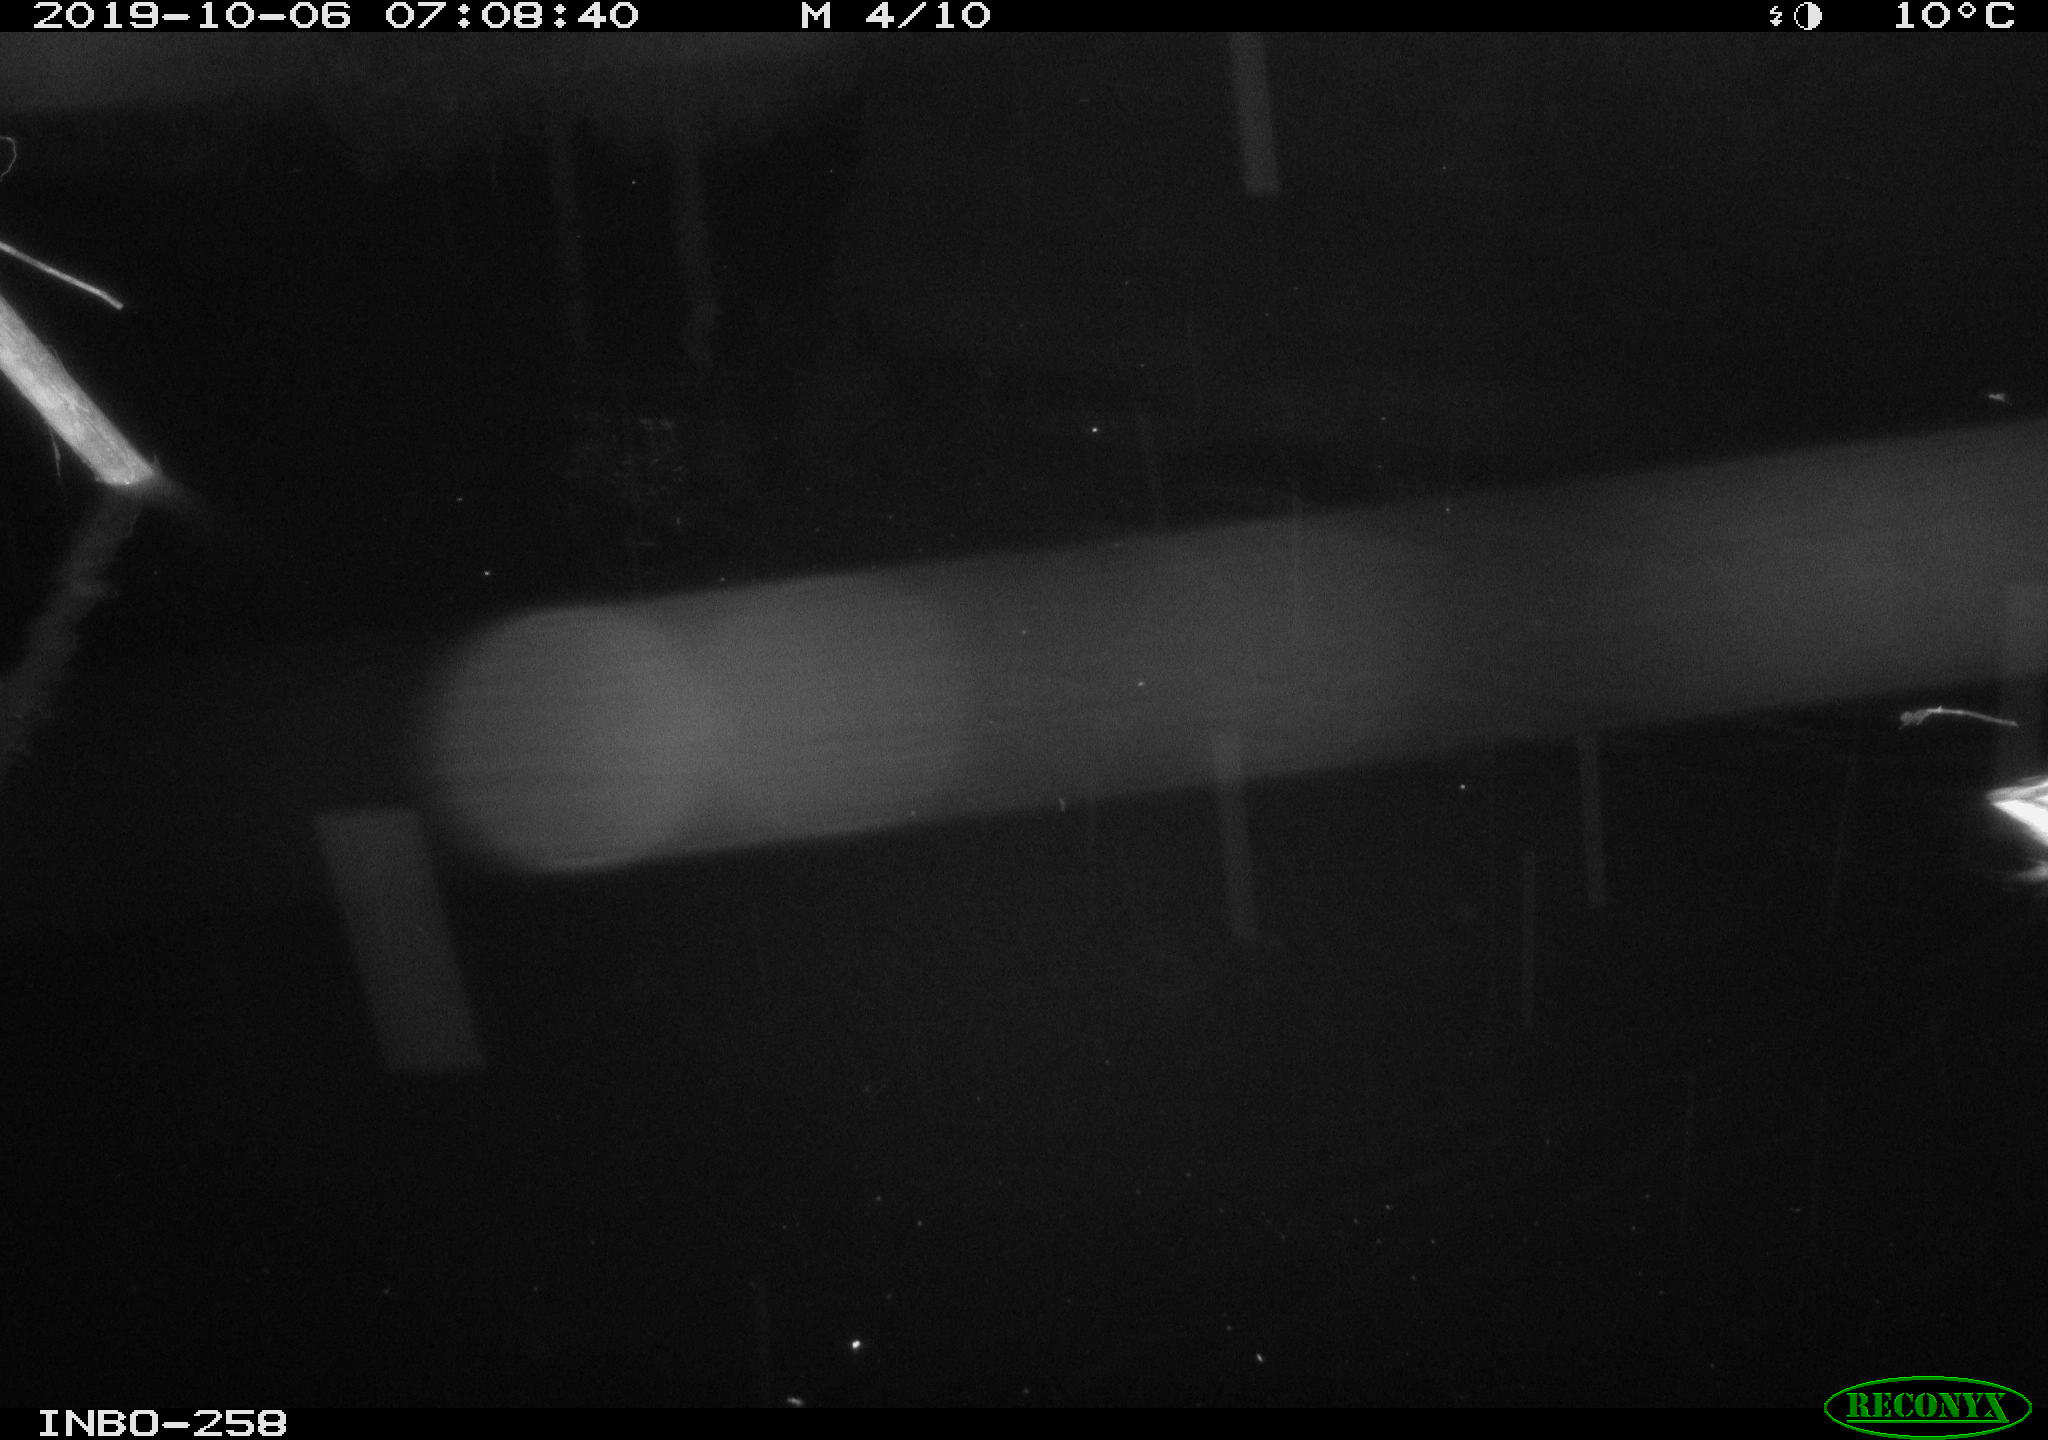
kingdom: Animalia
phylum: Chordata
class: Aves
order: Anseriformes
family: Anatidae
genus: Anas
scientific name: Anas platyrhynchos
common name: Mallard
